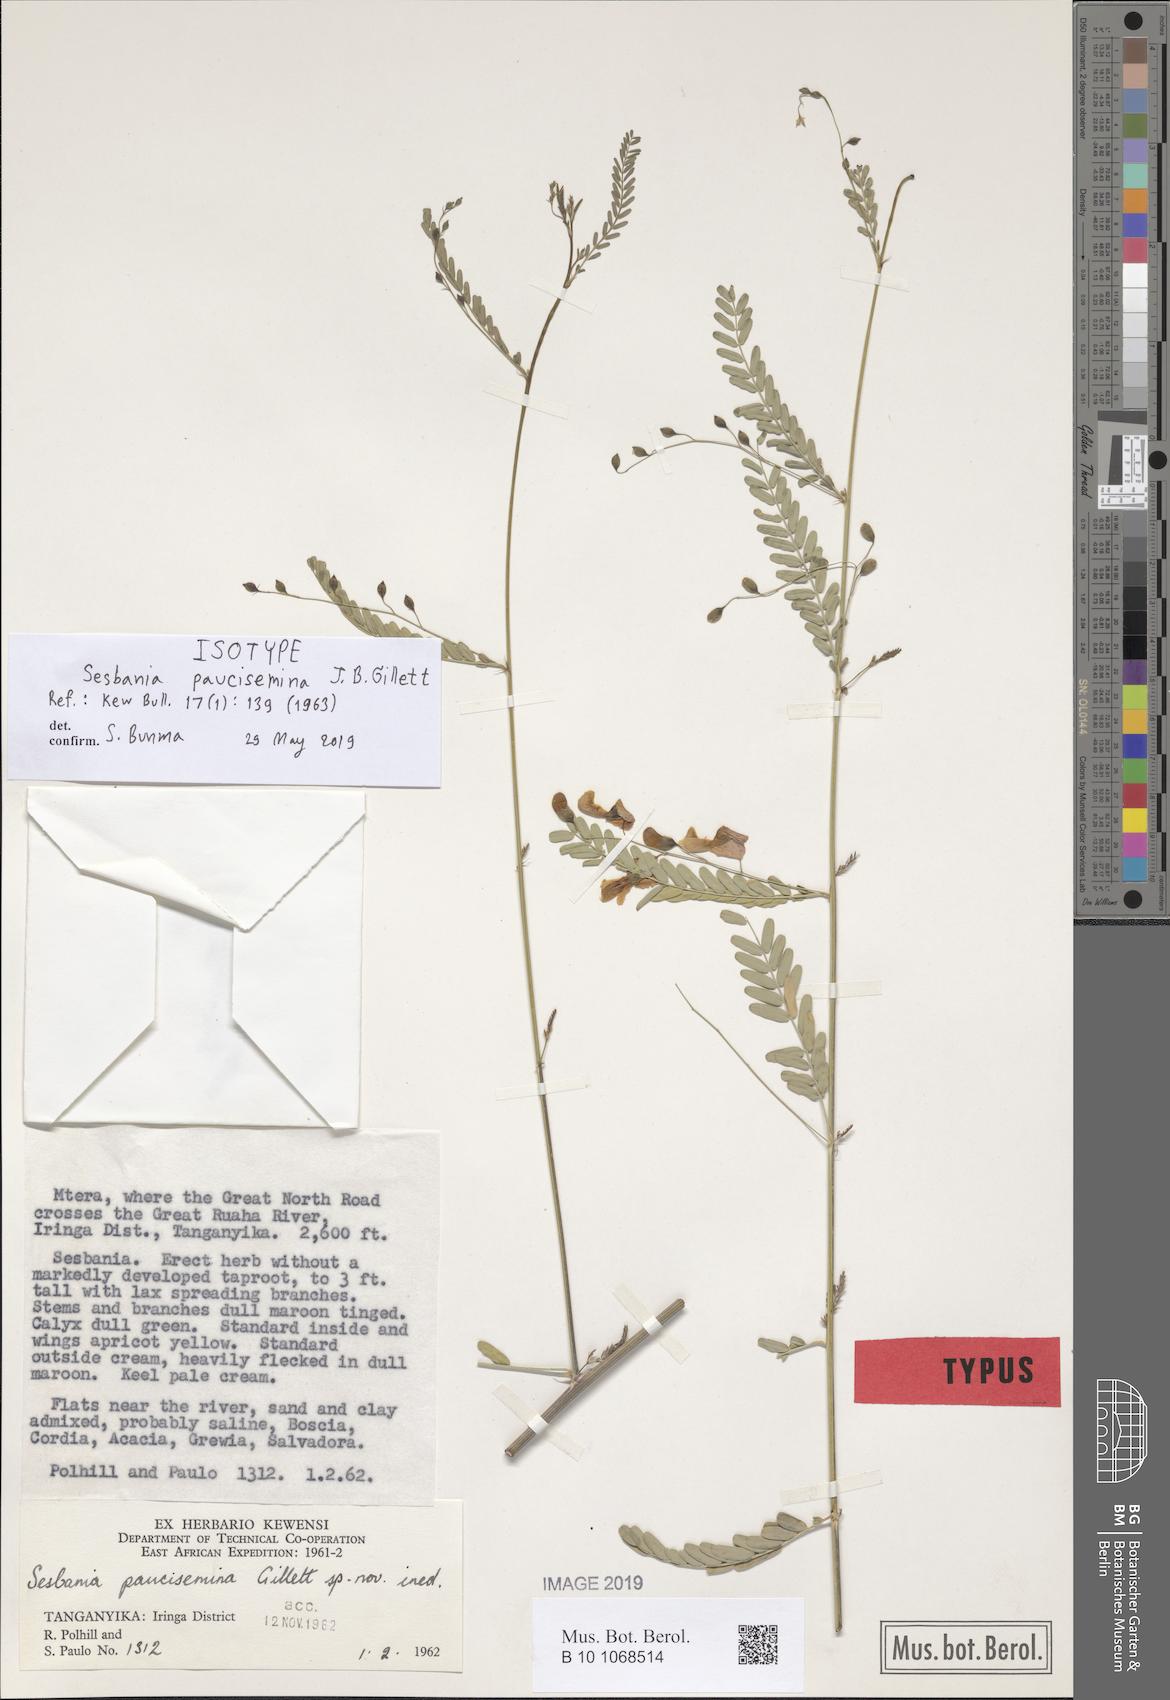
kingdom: Plantae
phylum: Tracheophyta
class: Magnoliopsida
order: Fabales
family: Fabaceae
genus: Sesbania
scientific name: Sesbania paucisemina
